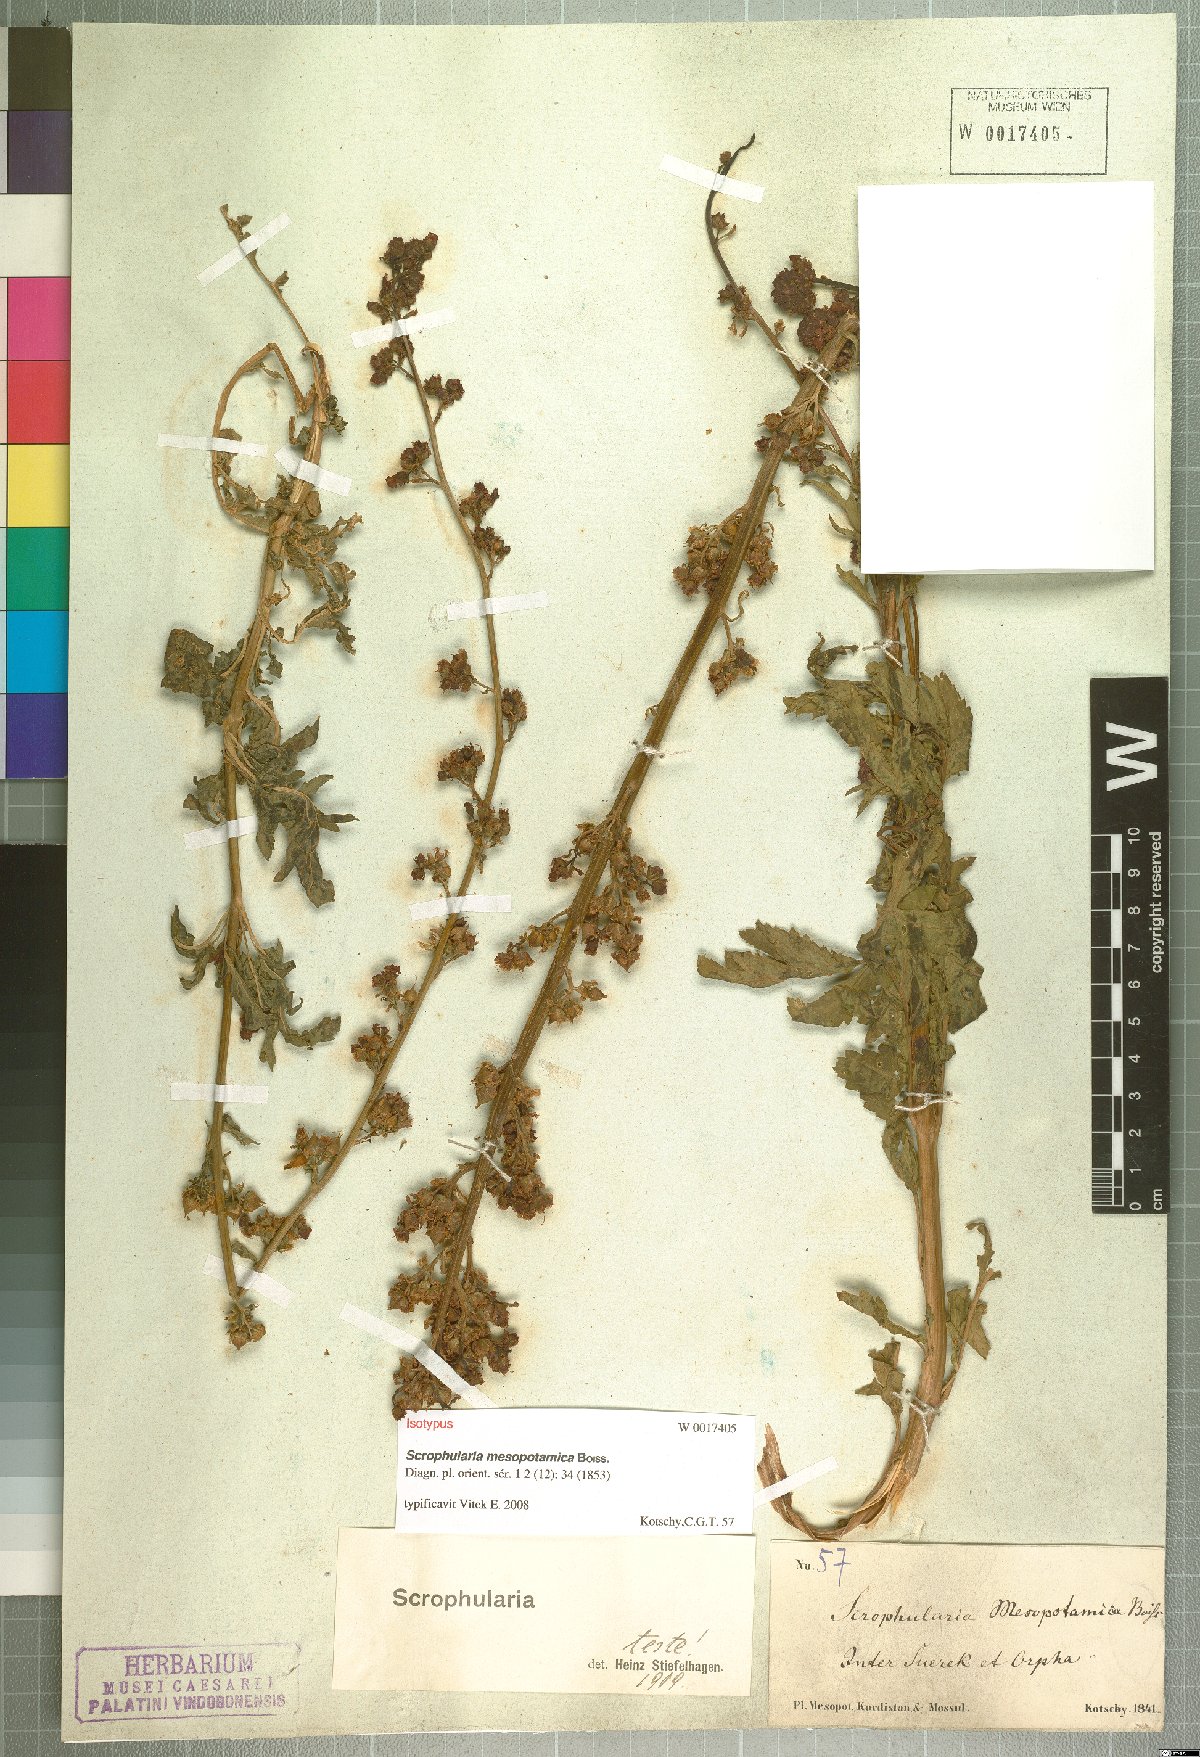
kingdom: Plantae
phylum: Tracheophyta
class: Magnoliopsida
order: Lamiales
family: Scrophulariaceae
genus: Scrophularia
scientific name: Scrophularia mesopotamica
